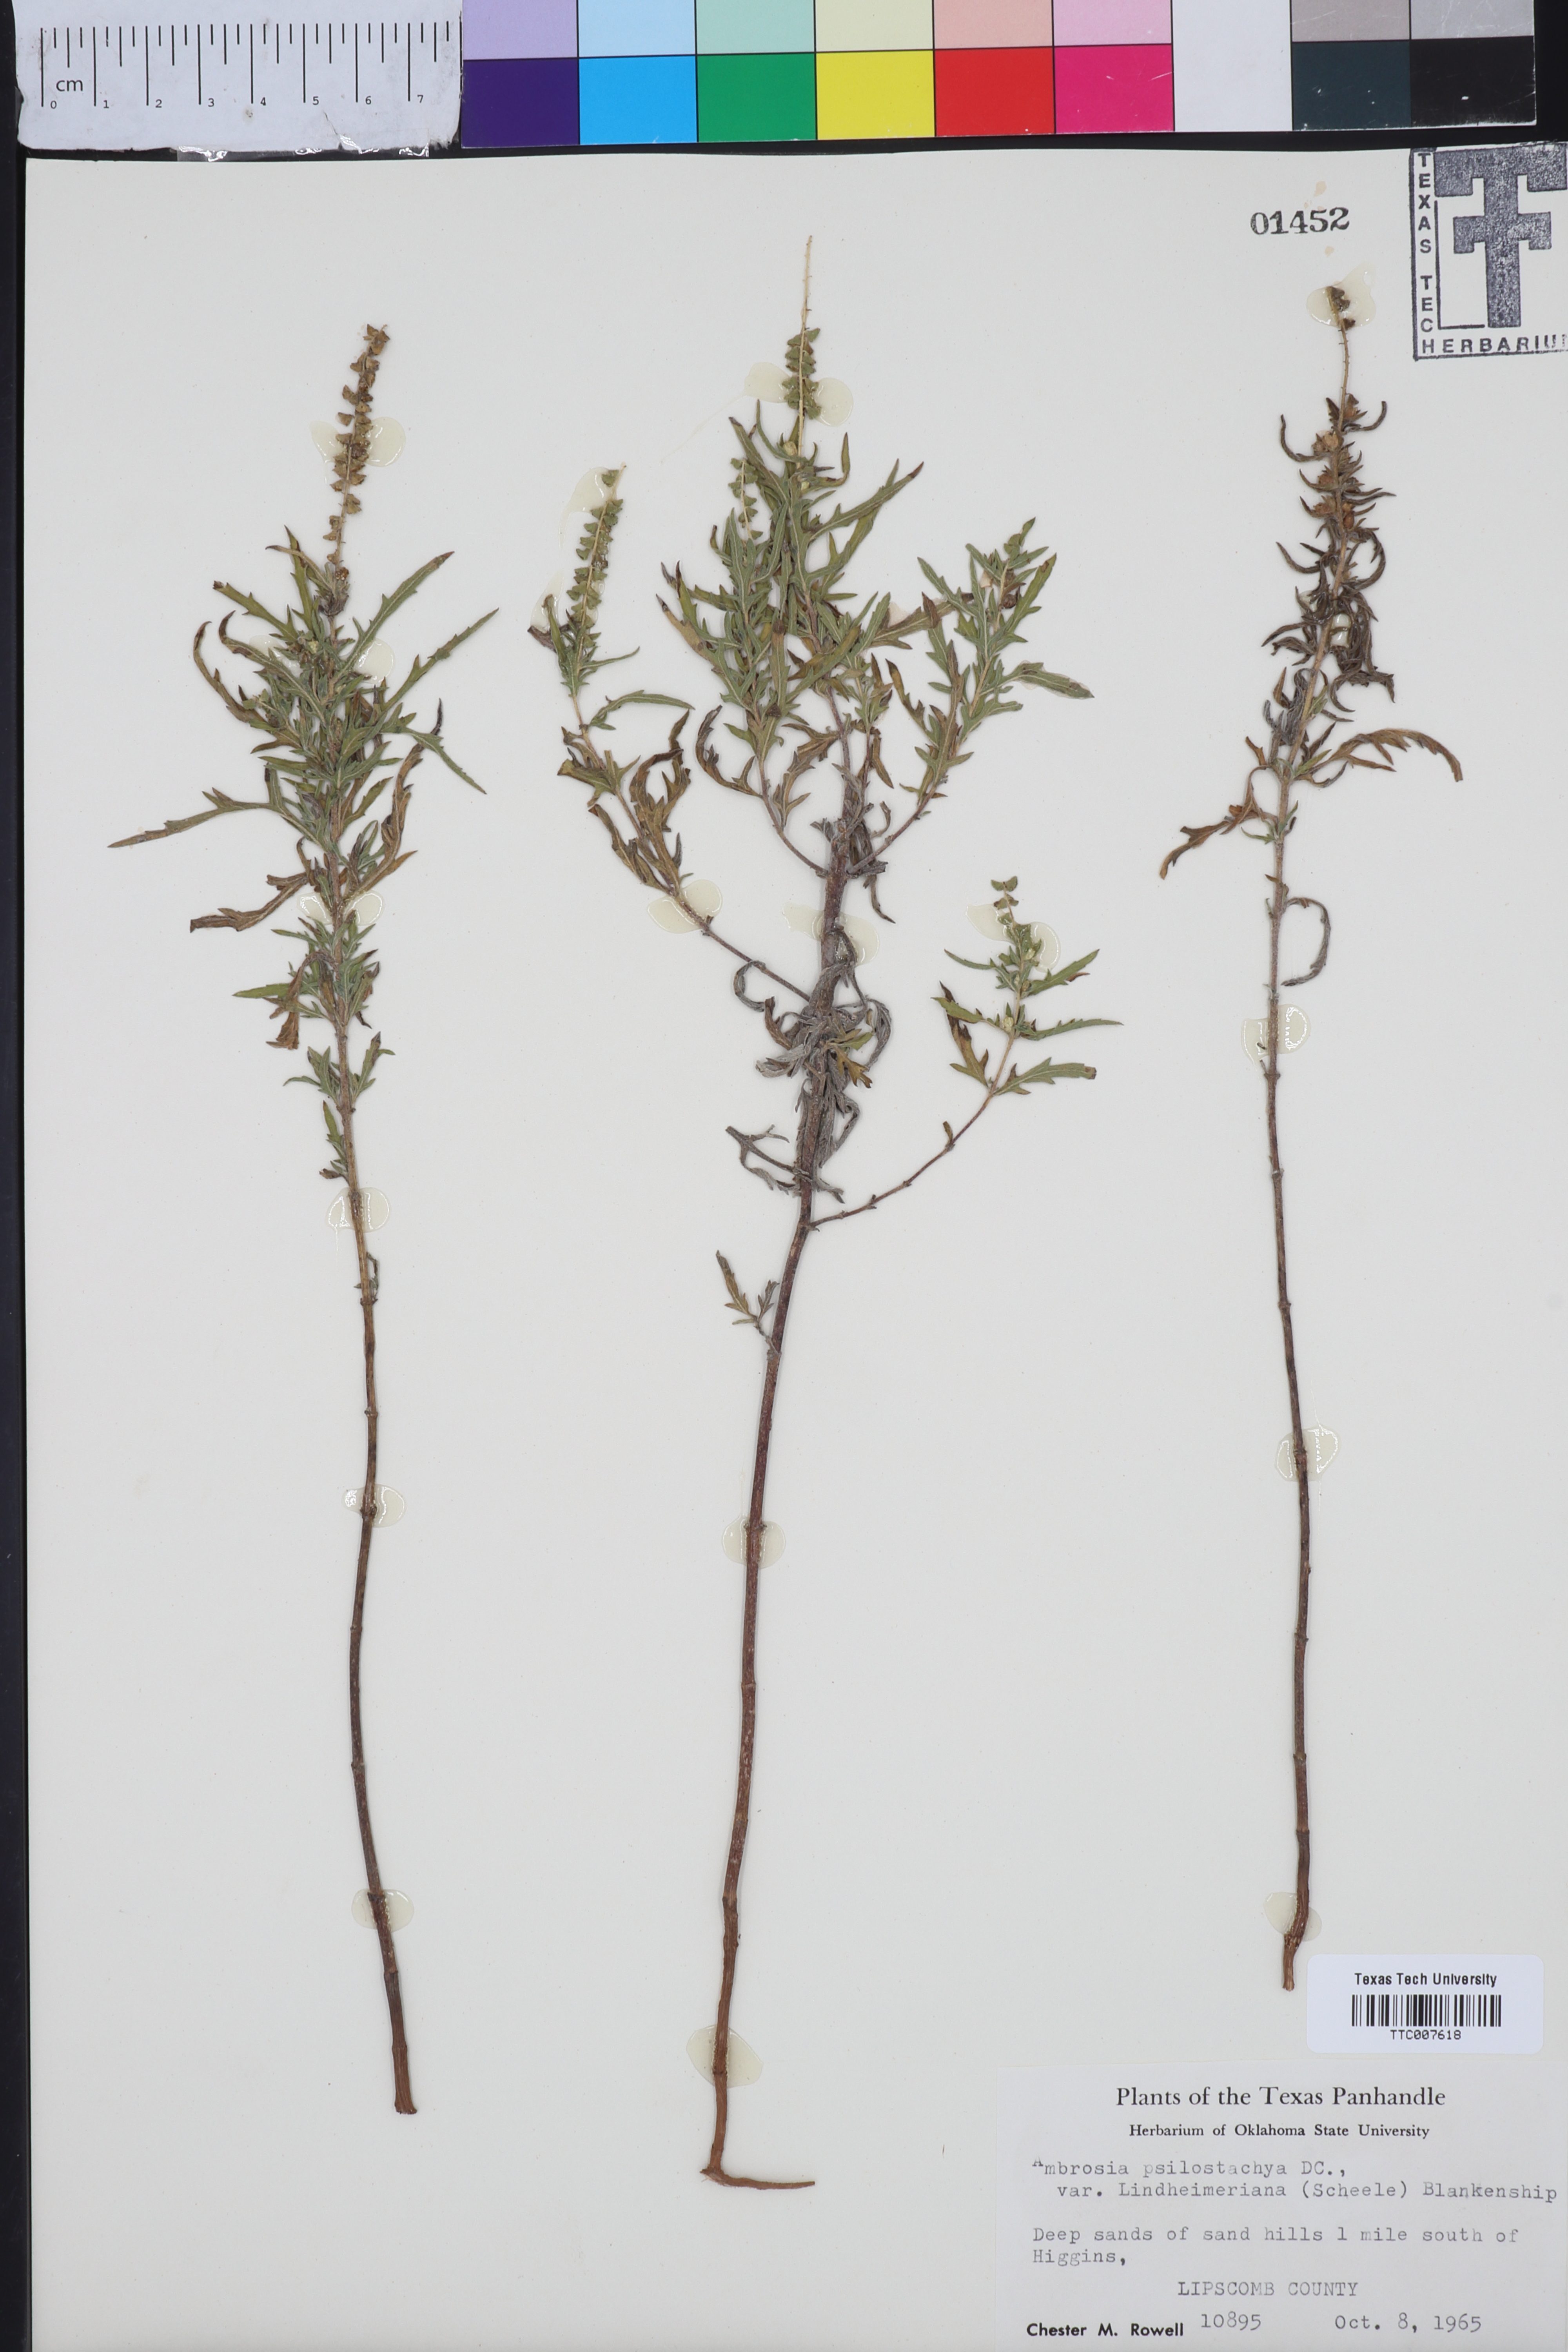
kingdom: Plantae
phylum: Tracheophyta
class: Magnoliopsida
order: Asterales
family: Asteraceae
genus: Ambrosia
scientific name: Ambrosia psilostachya
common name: Perennial ragweed
